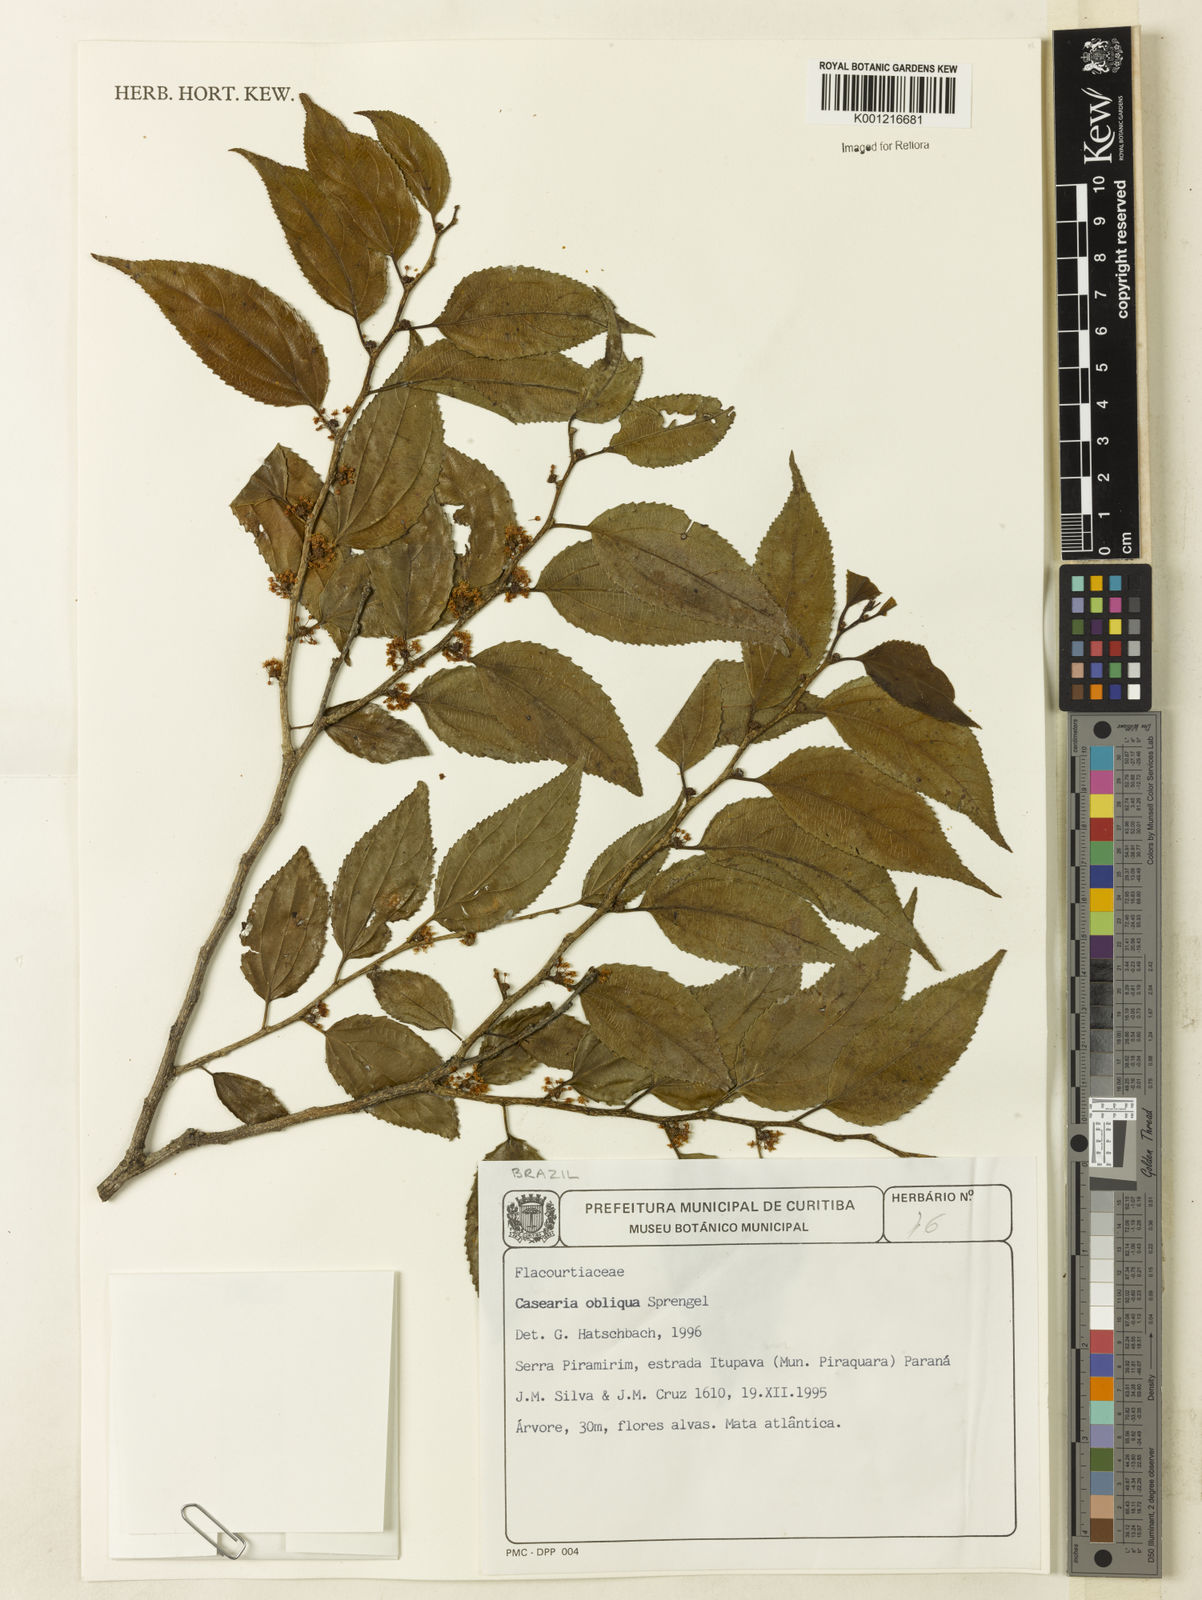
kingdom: Plantae
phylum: Tracheophyta
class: Magnoliopsida
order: Malpighiales
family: Salicaceae
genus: Casearia
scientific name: Casearia obliqua
